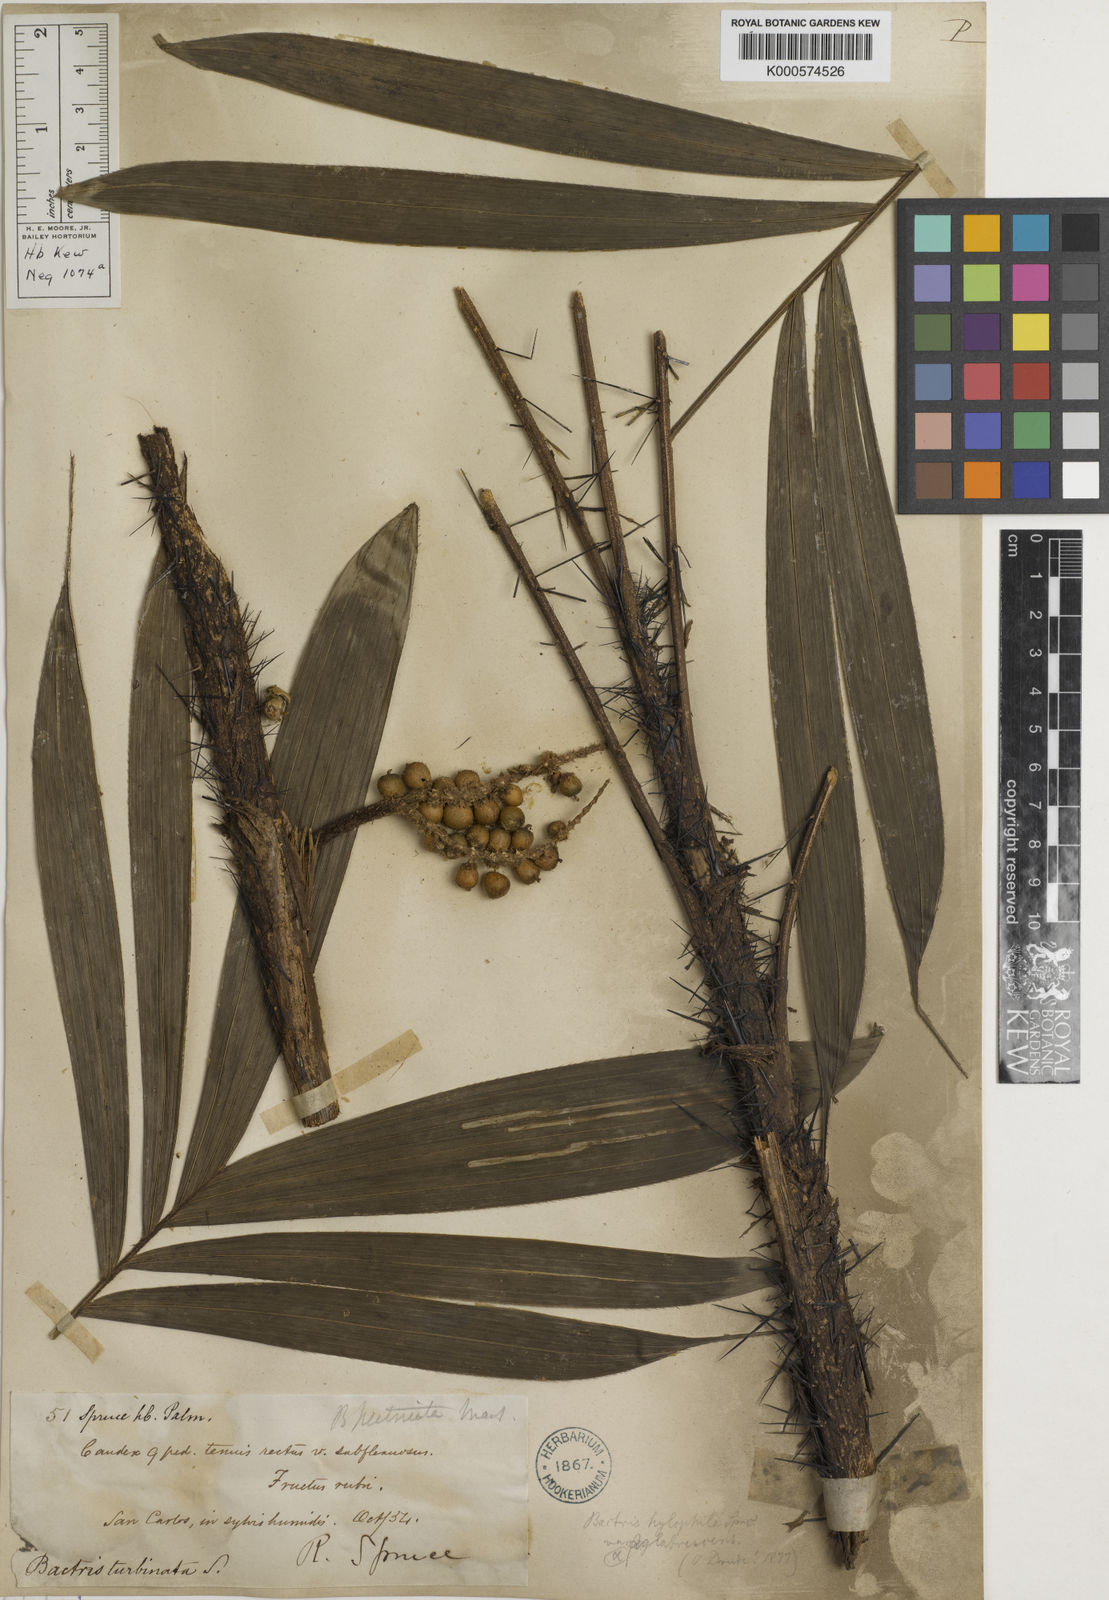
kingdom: Plantae
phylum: Tracheophyta
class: Liliopsida
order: Arecales
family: Arecaceae
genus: Bactris
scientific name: Bactris hirta
